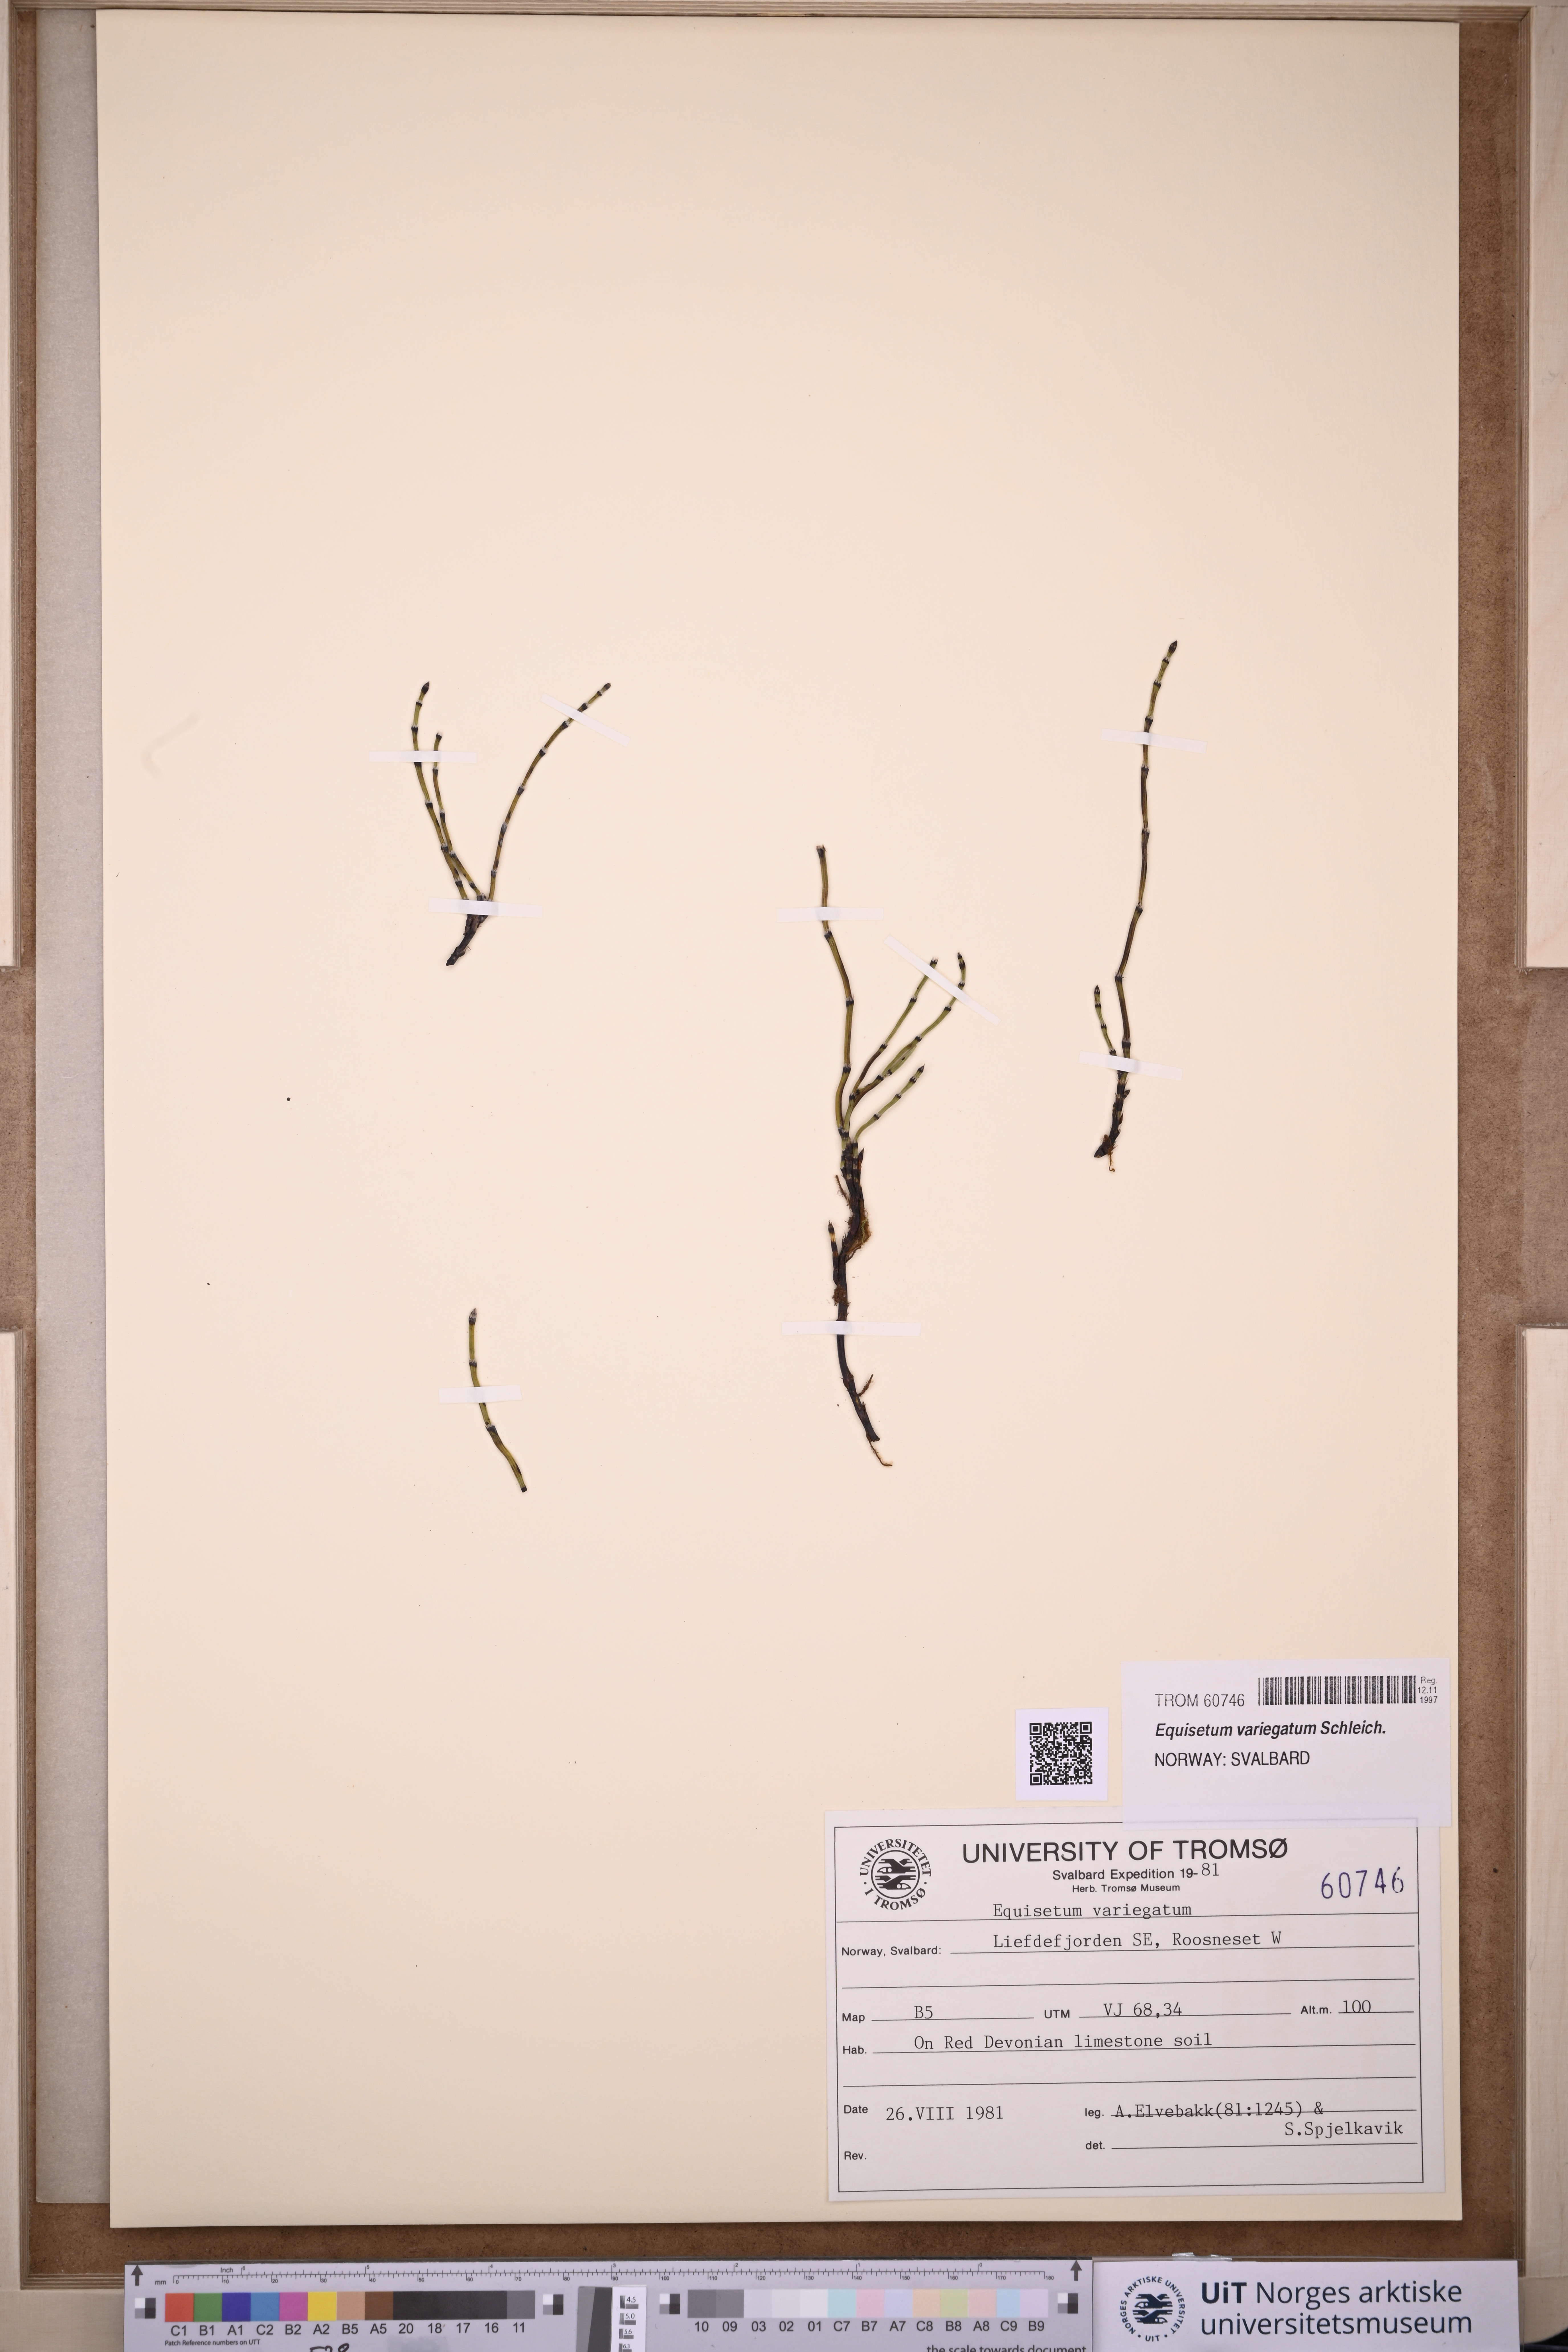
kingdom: Plantae
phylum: Tracheophyta
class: Polypodiopsida
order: Equisetales
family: Equisetaceae
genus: Equisetum
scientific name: Equisetum variegatum
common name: Variegated horsetail
